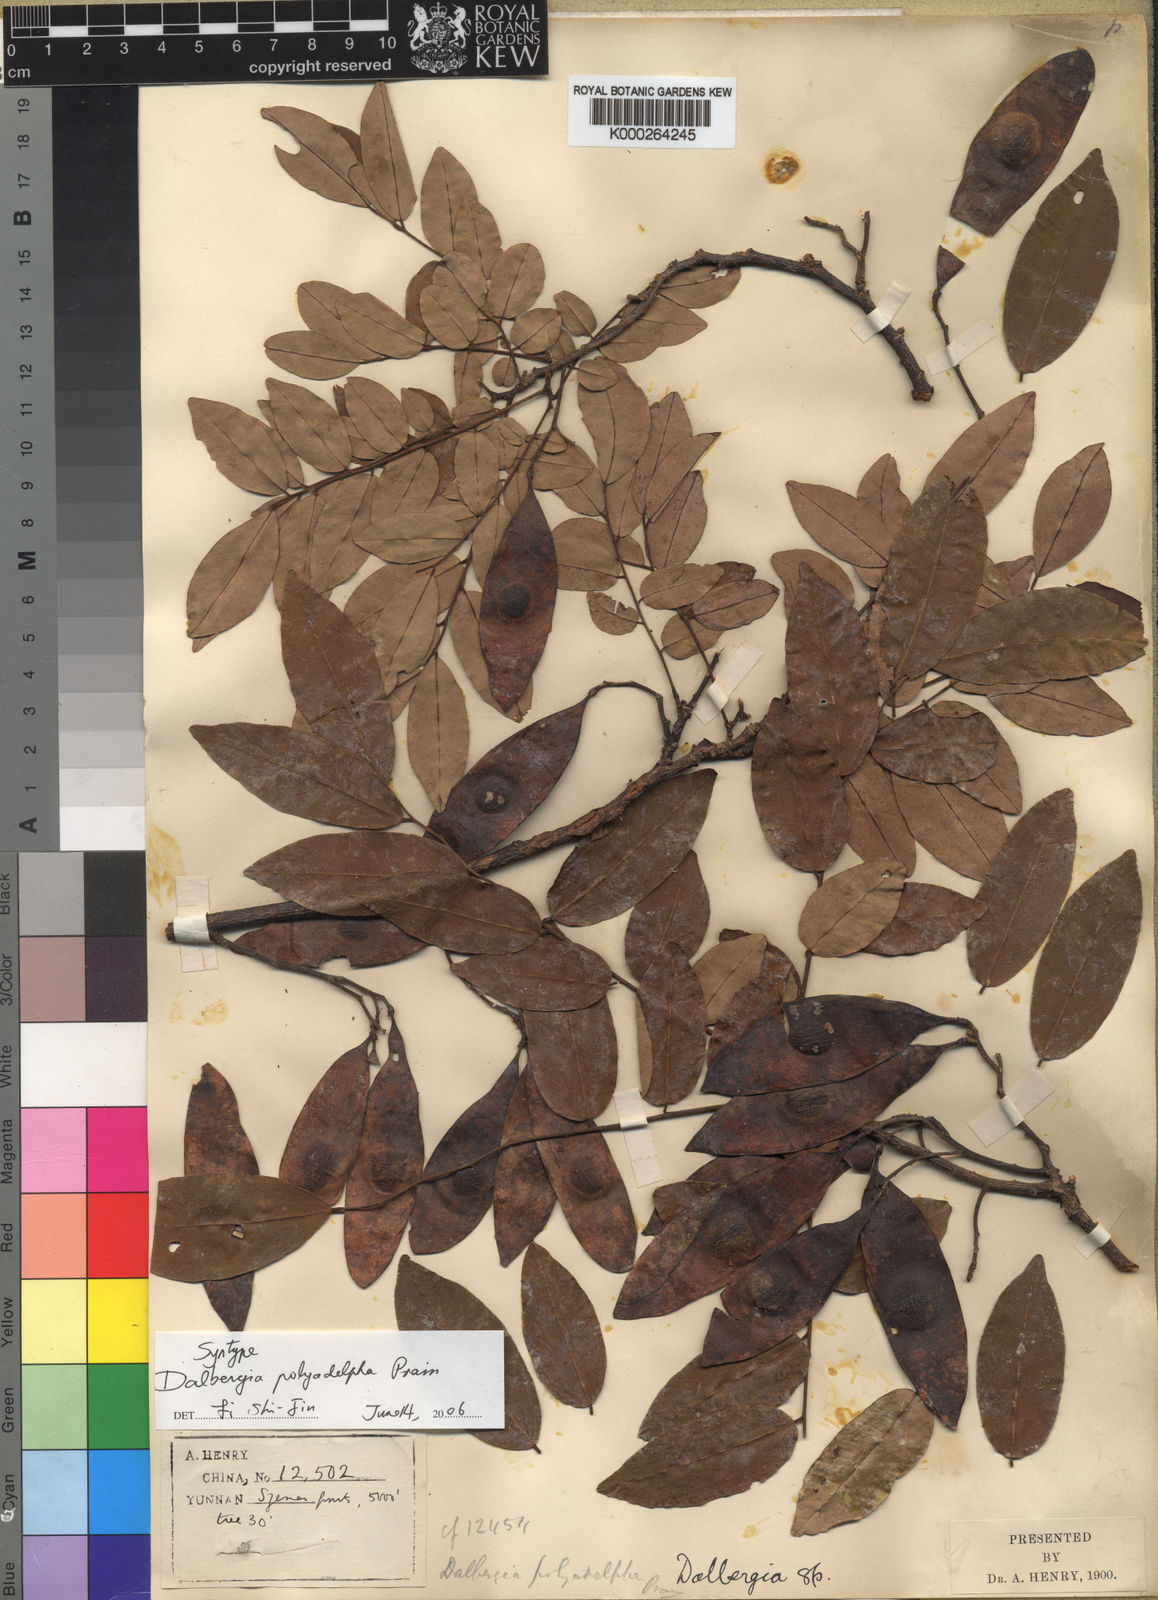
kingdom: Plantae
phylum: Tracheophyta
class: Magnoliopsida
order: Fabales
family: Fabaceae
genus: Dalbergia
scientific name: Dalbergia polyadelpha
